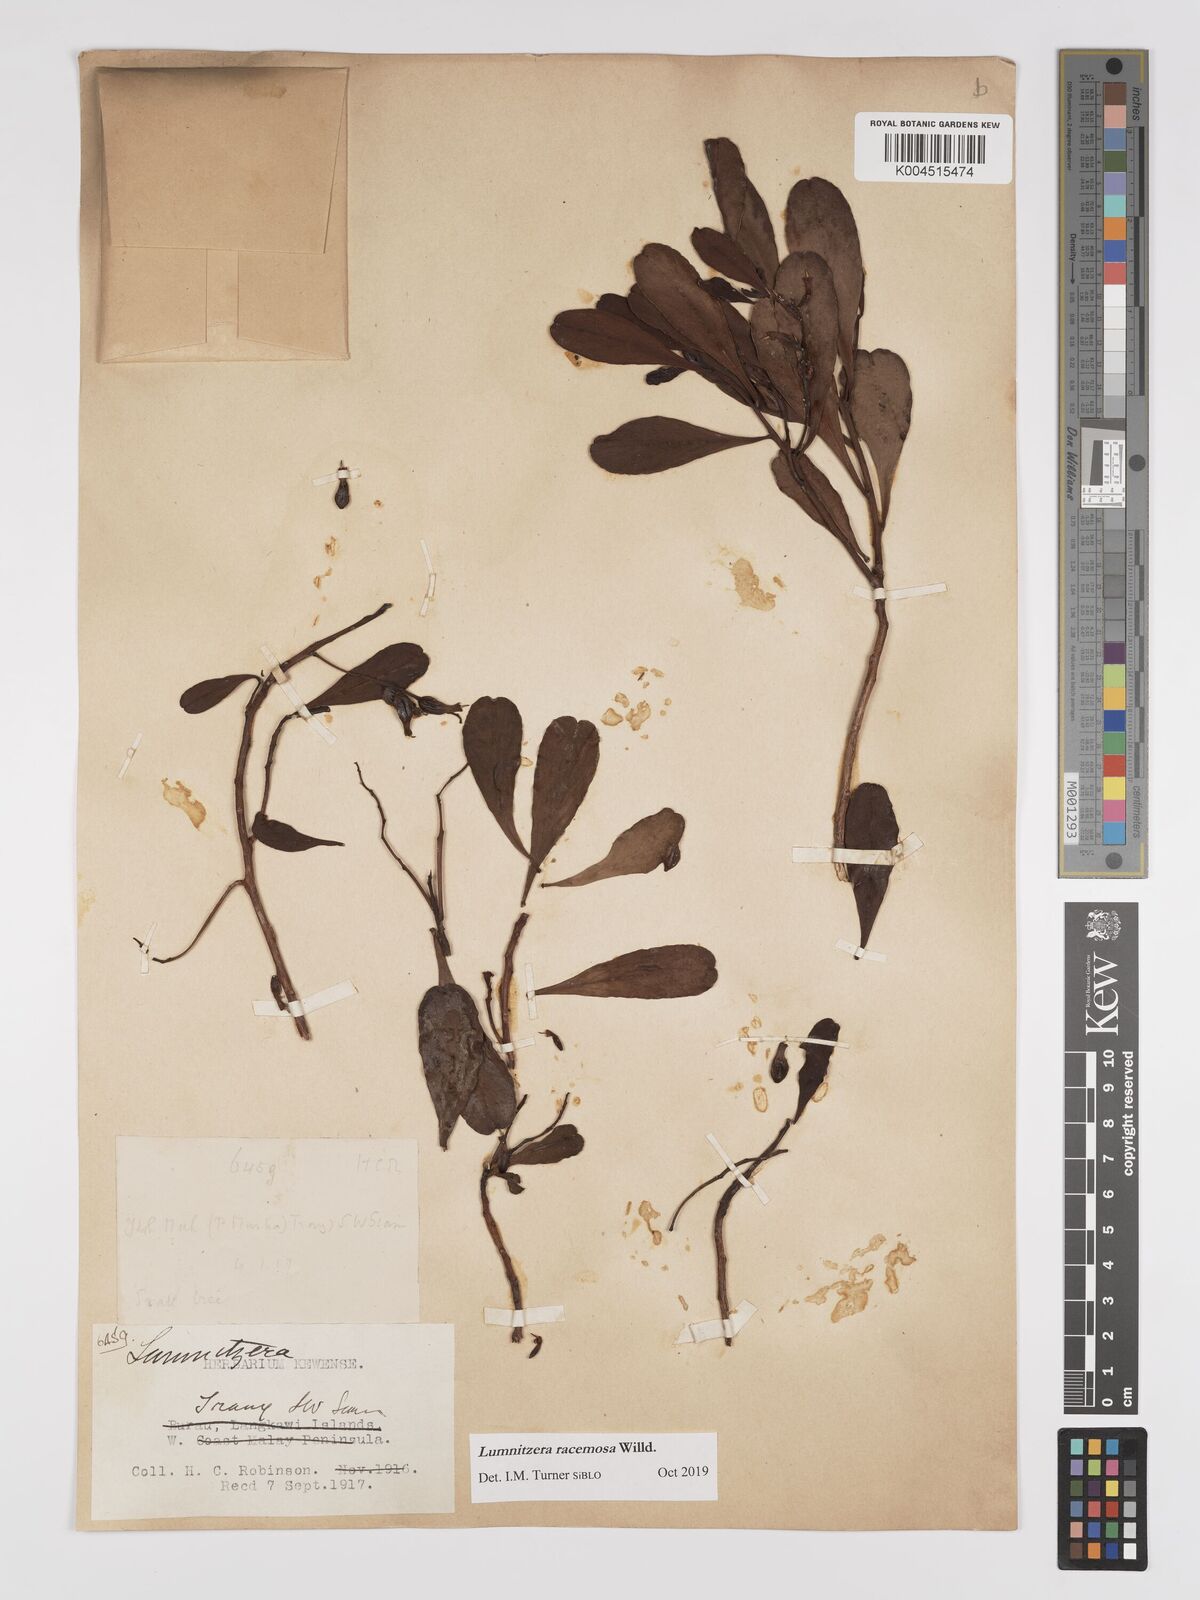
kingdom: Plantae
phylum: Tracheophyta
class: Magnoliopsida
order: Myrtales
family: Combretaceae
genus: Lumnitzera
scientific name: Lumnitzera racemosa
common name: White-flowered black mangrove
